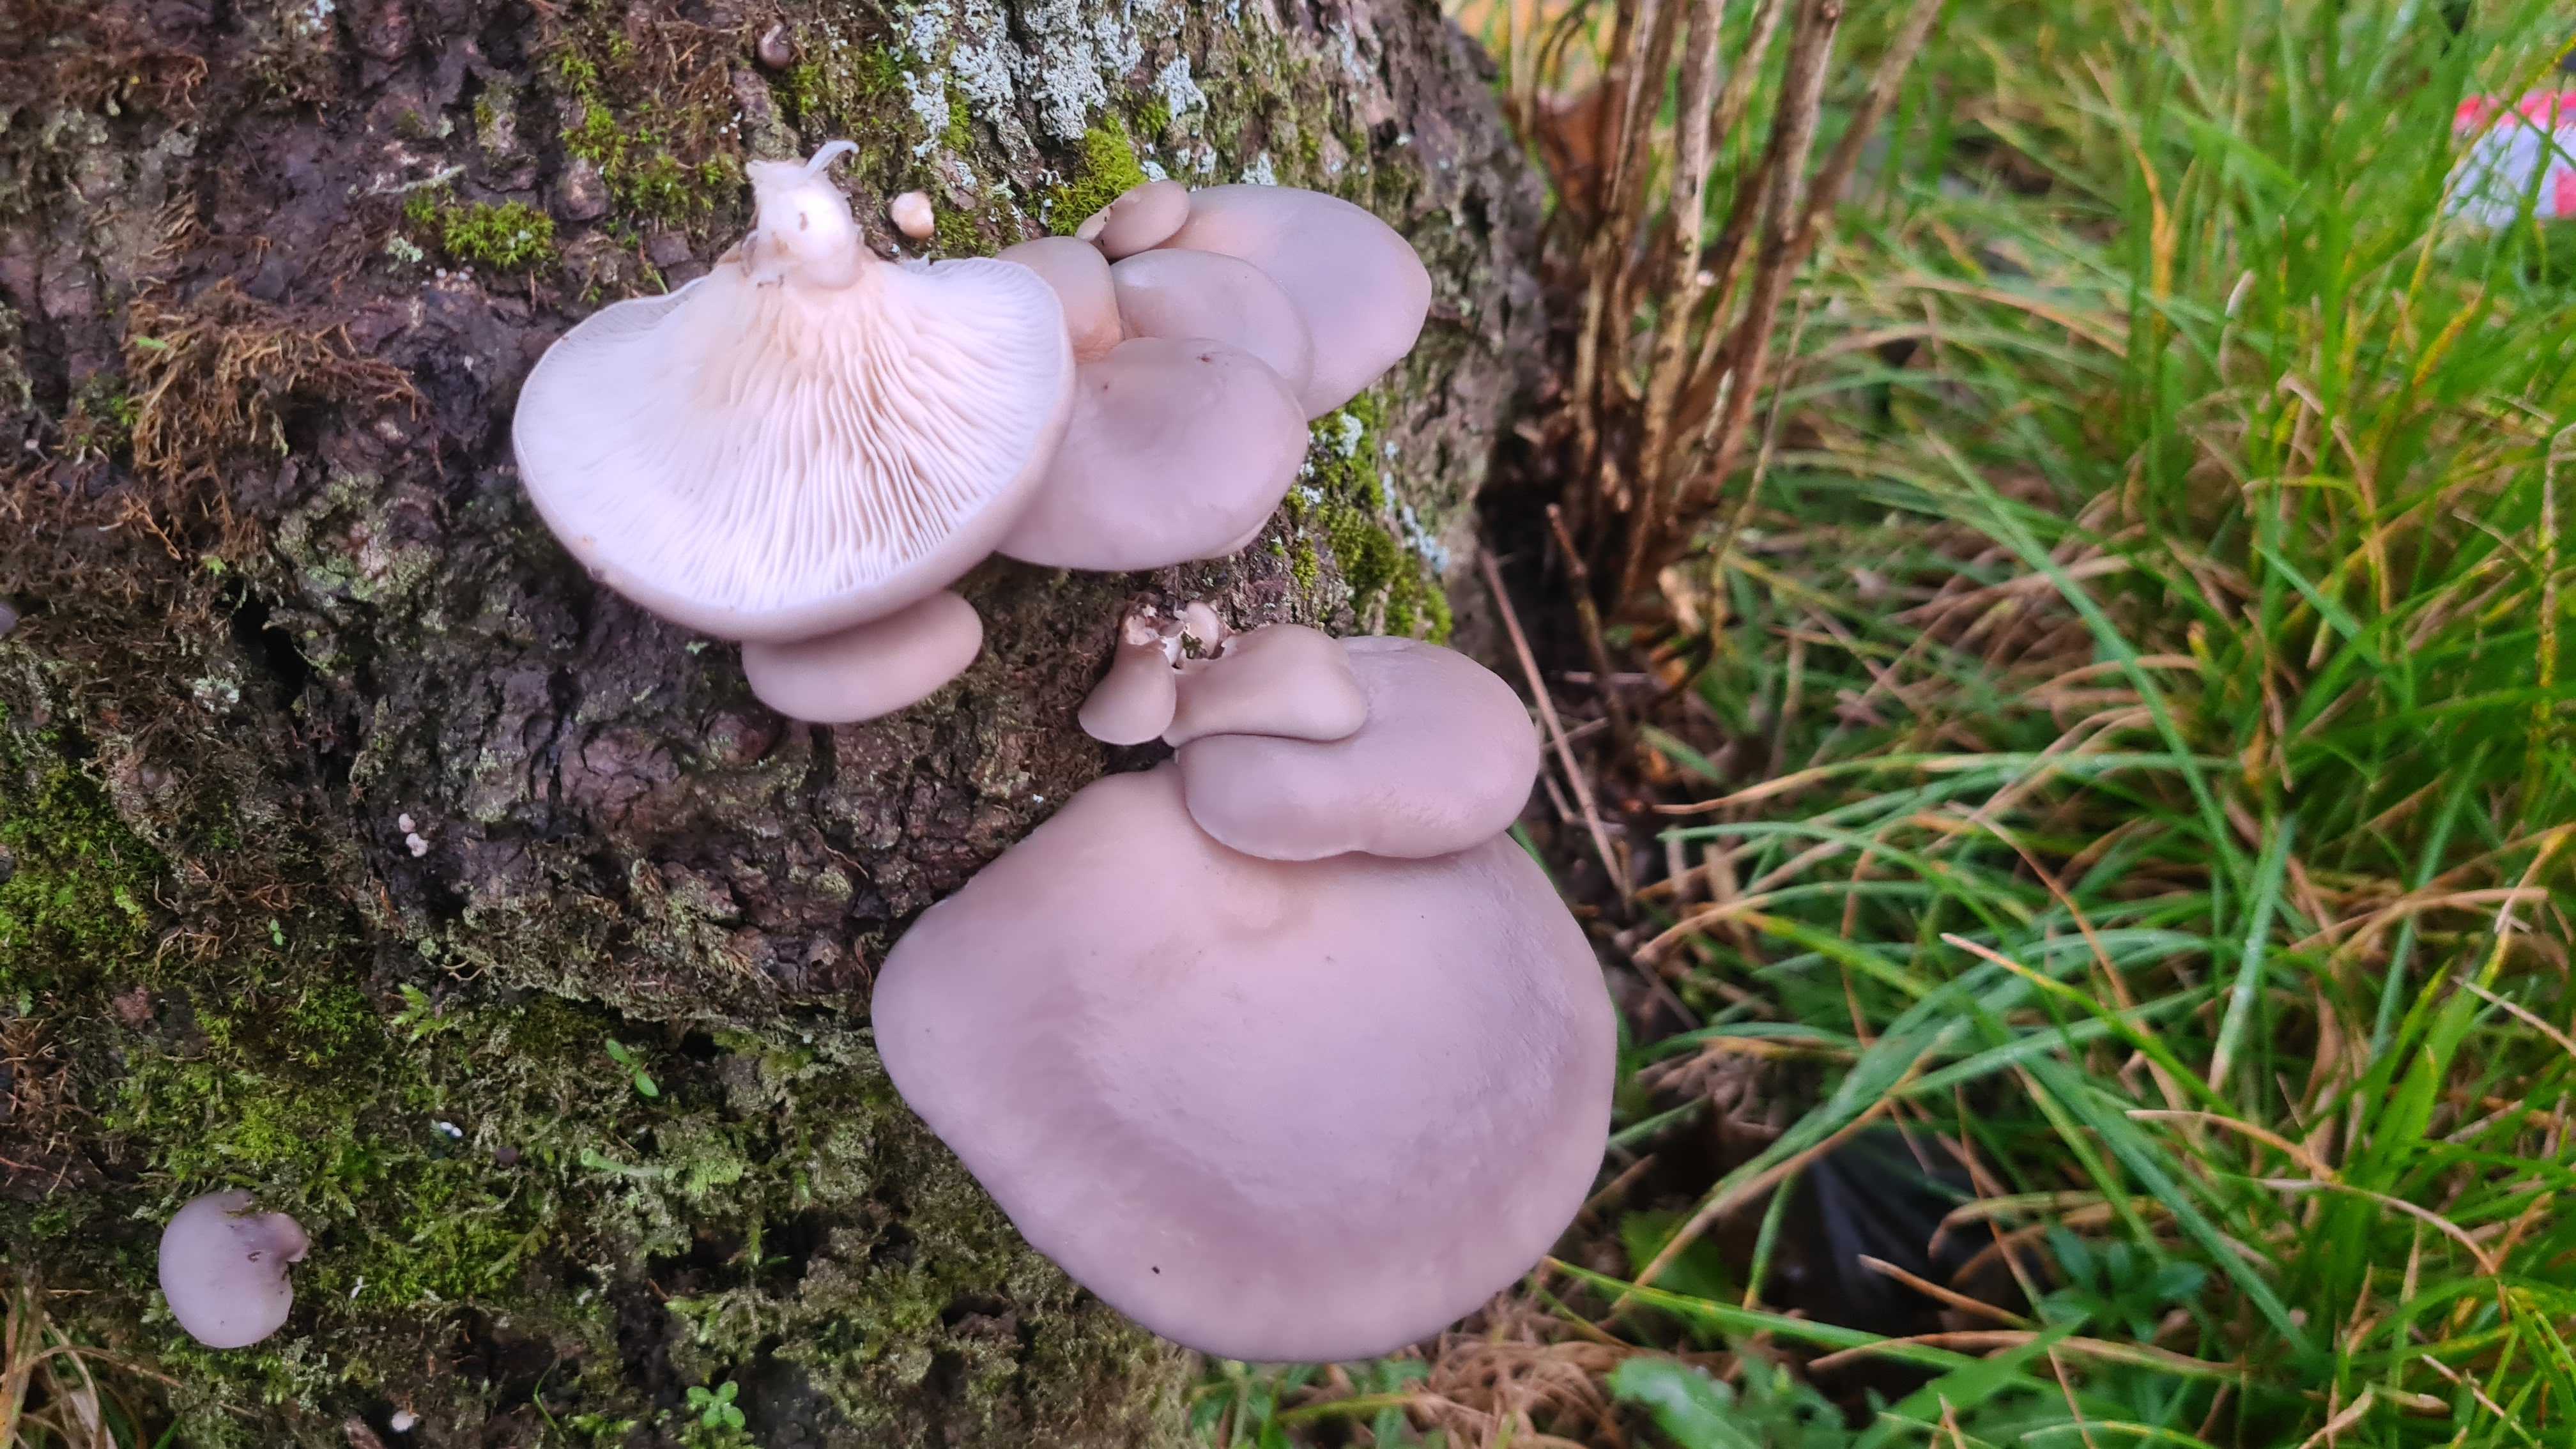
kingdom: Fungi
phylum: Basidiomycota
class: Agaricomycetes
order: Agaricales
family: Pleurotaceae
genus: Pleurotus
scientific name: Pleurotus ostreatus
